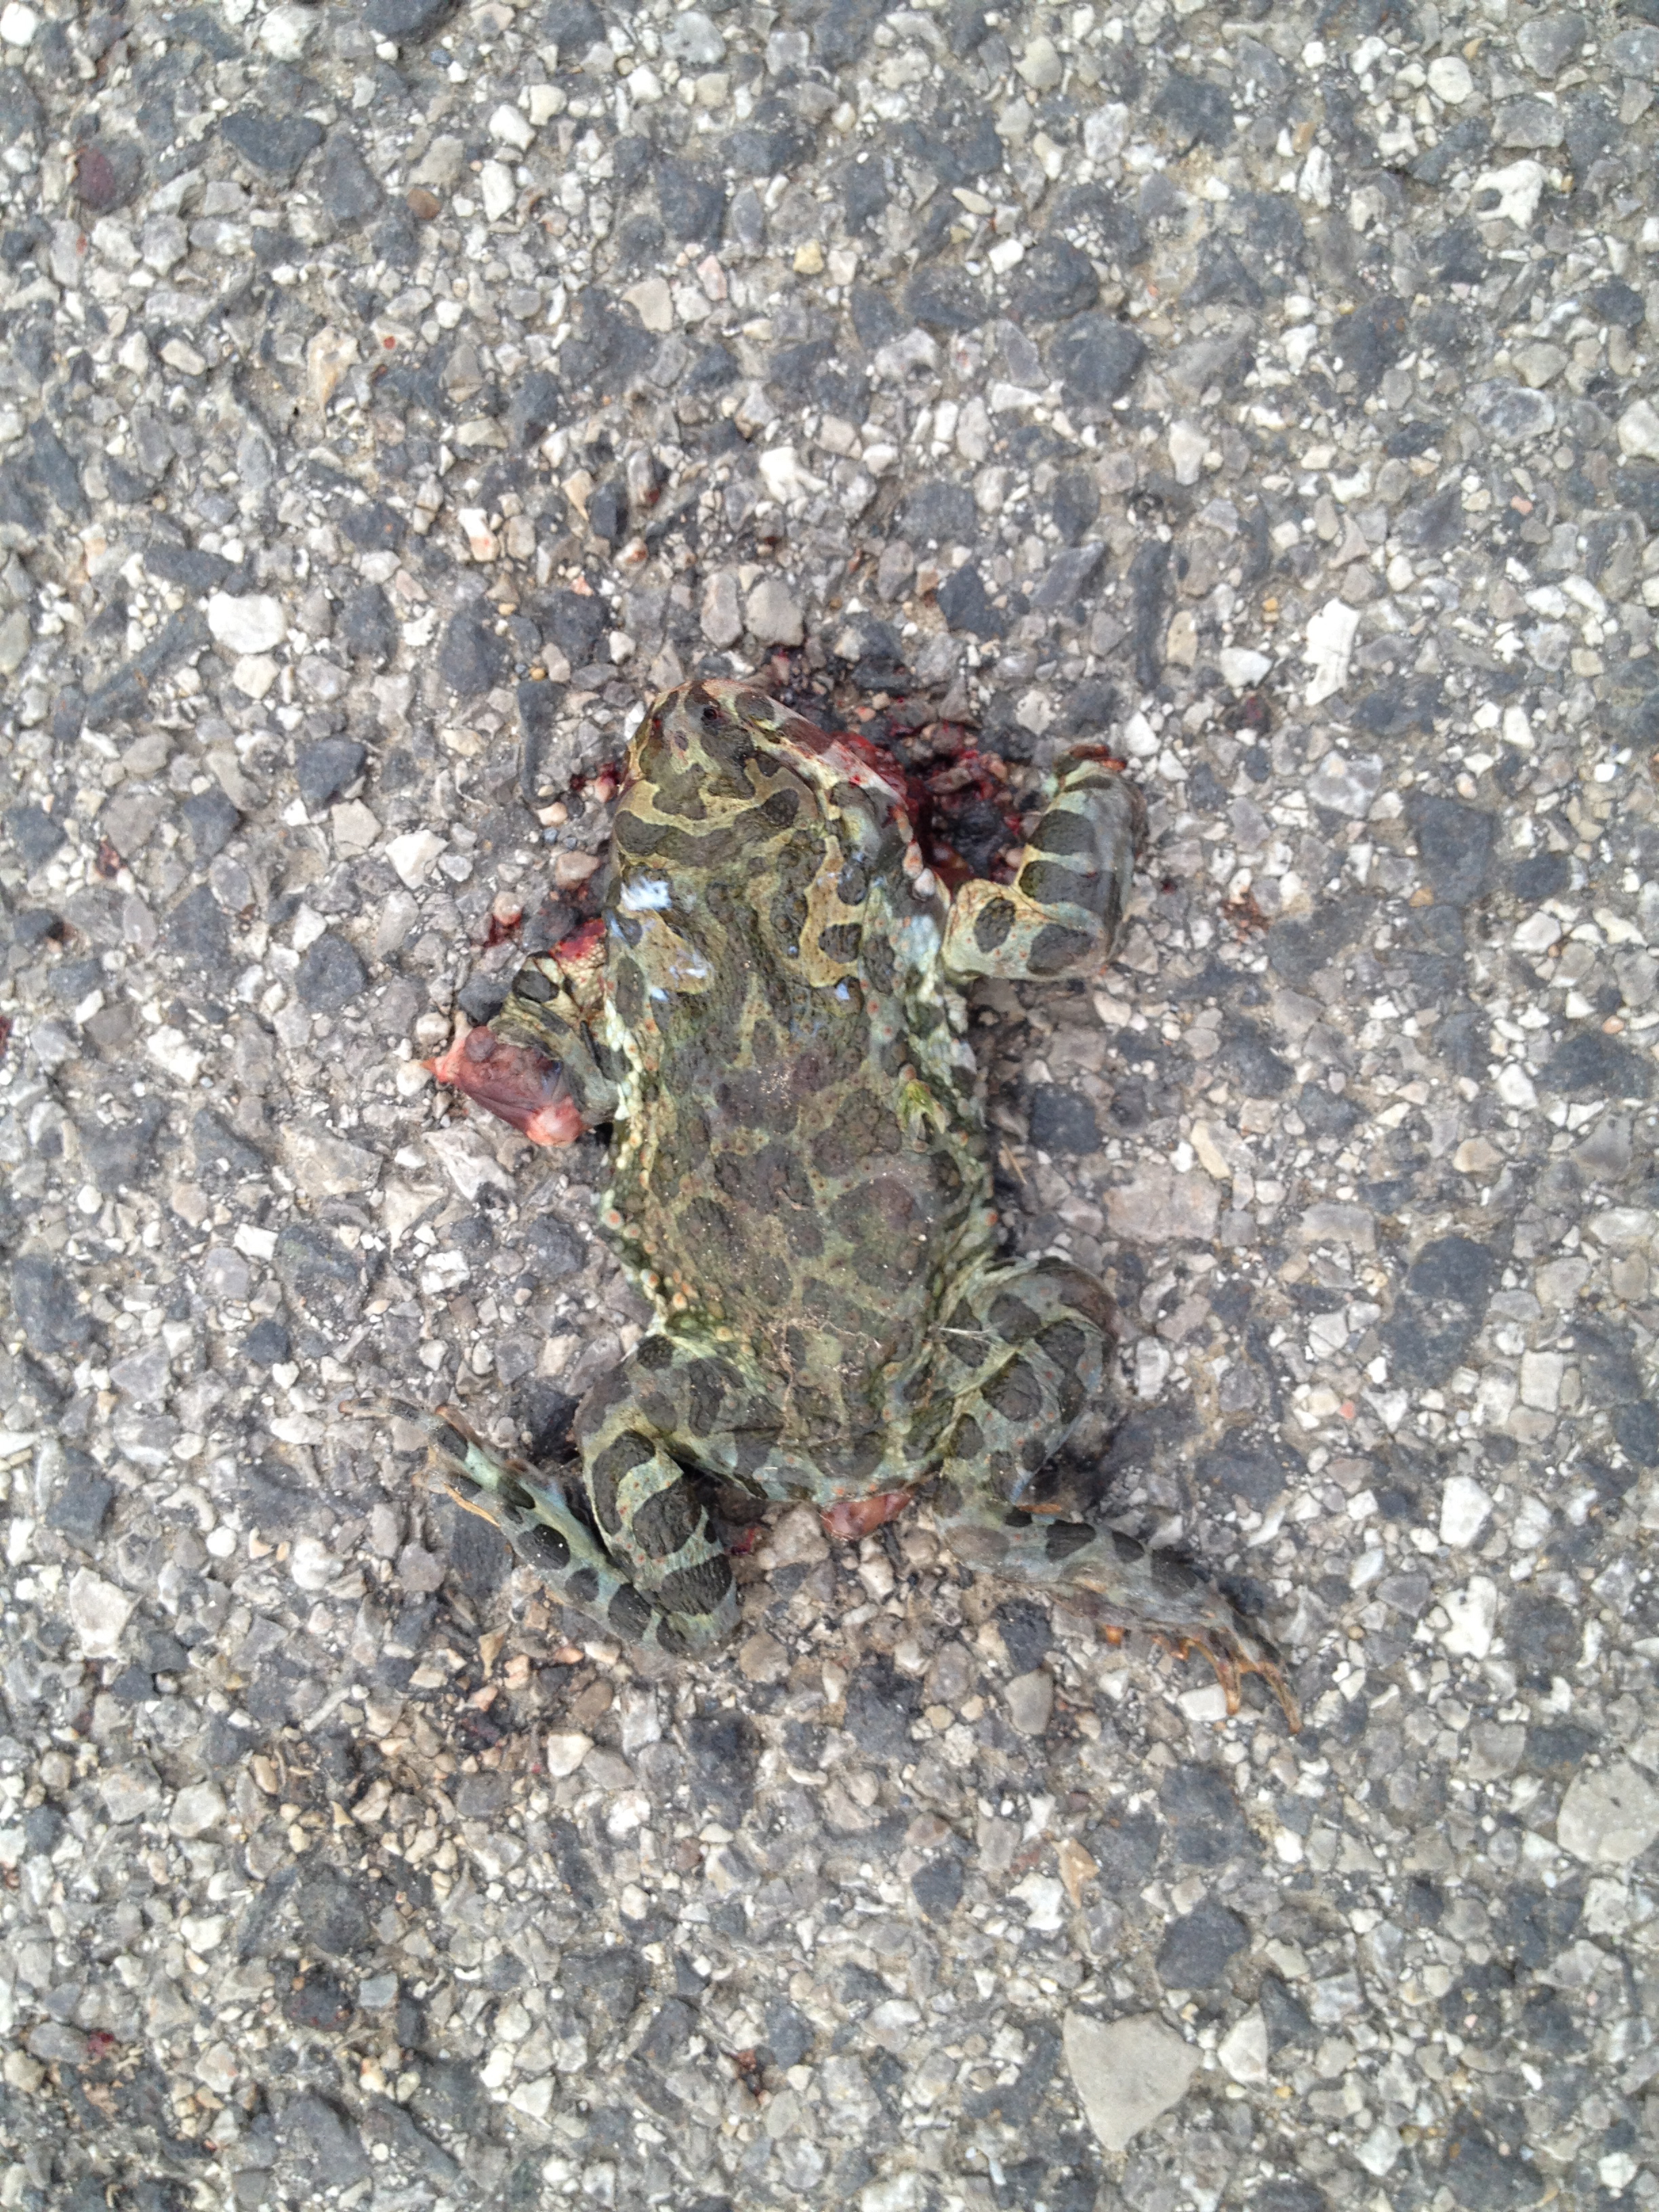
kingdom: Animalia
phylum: Chordata
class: Amphibia
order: Anura
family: Bufonidae
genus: Bufotes
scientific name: Bufotes viridis
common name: European green toad
